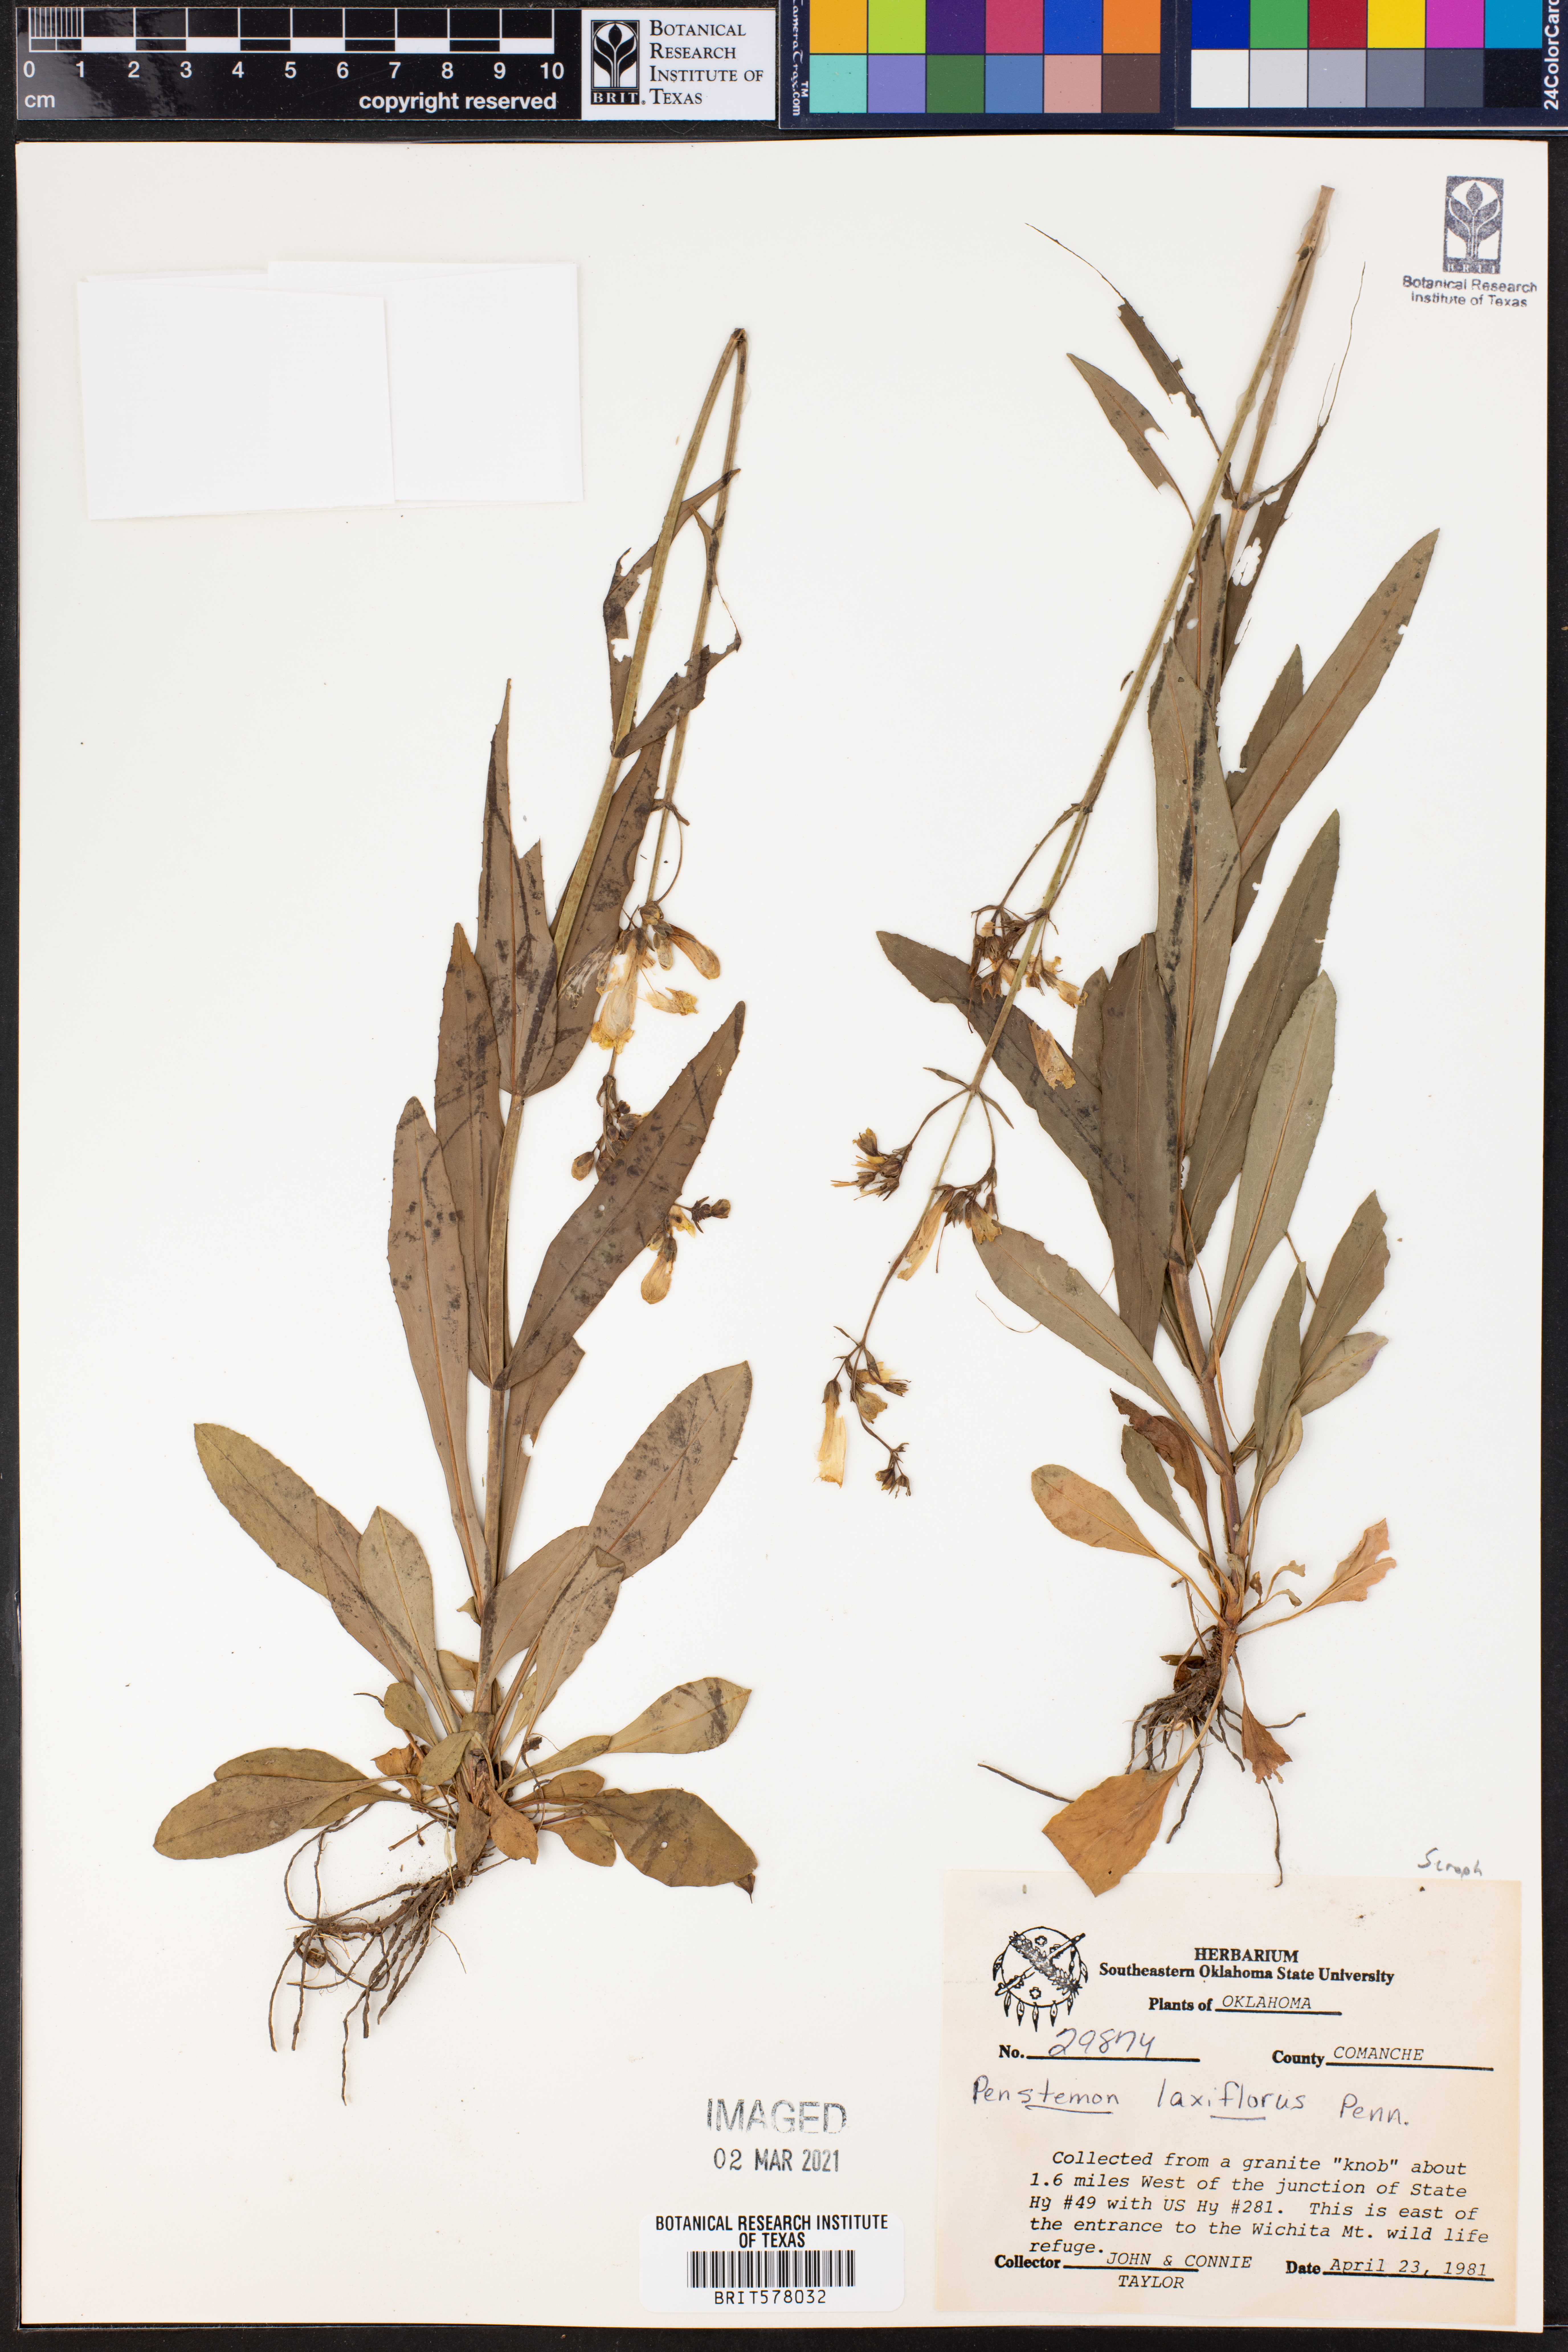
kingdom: Plantae
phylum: Tracheophyta
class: Magnoliopsida
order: Lamiales
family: Plantaginaceae
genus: Penstemon
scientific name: Penstemon laxiflorus
